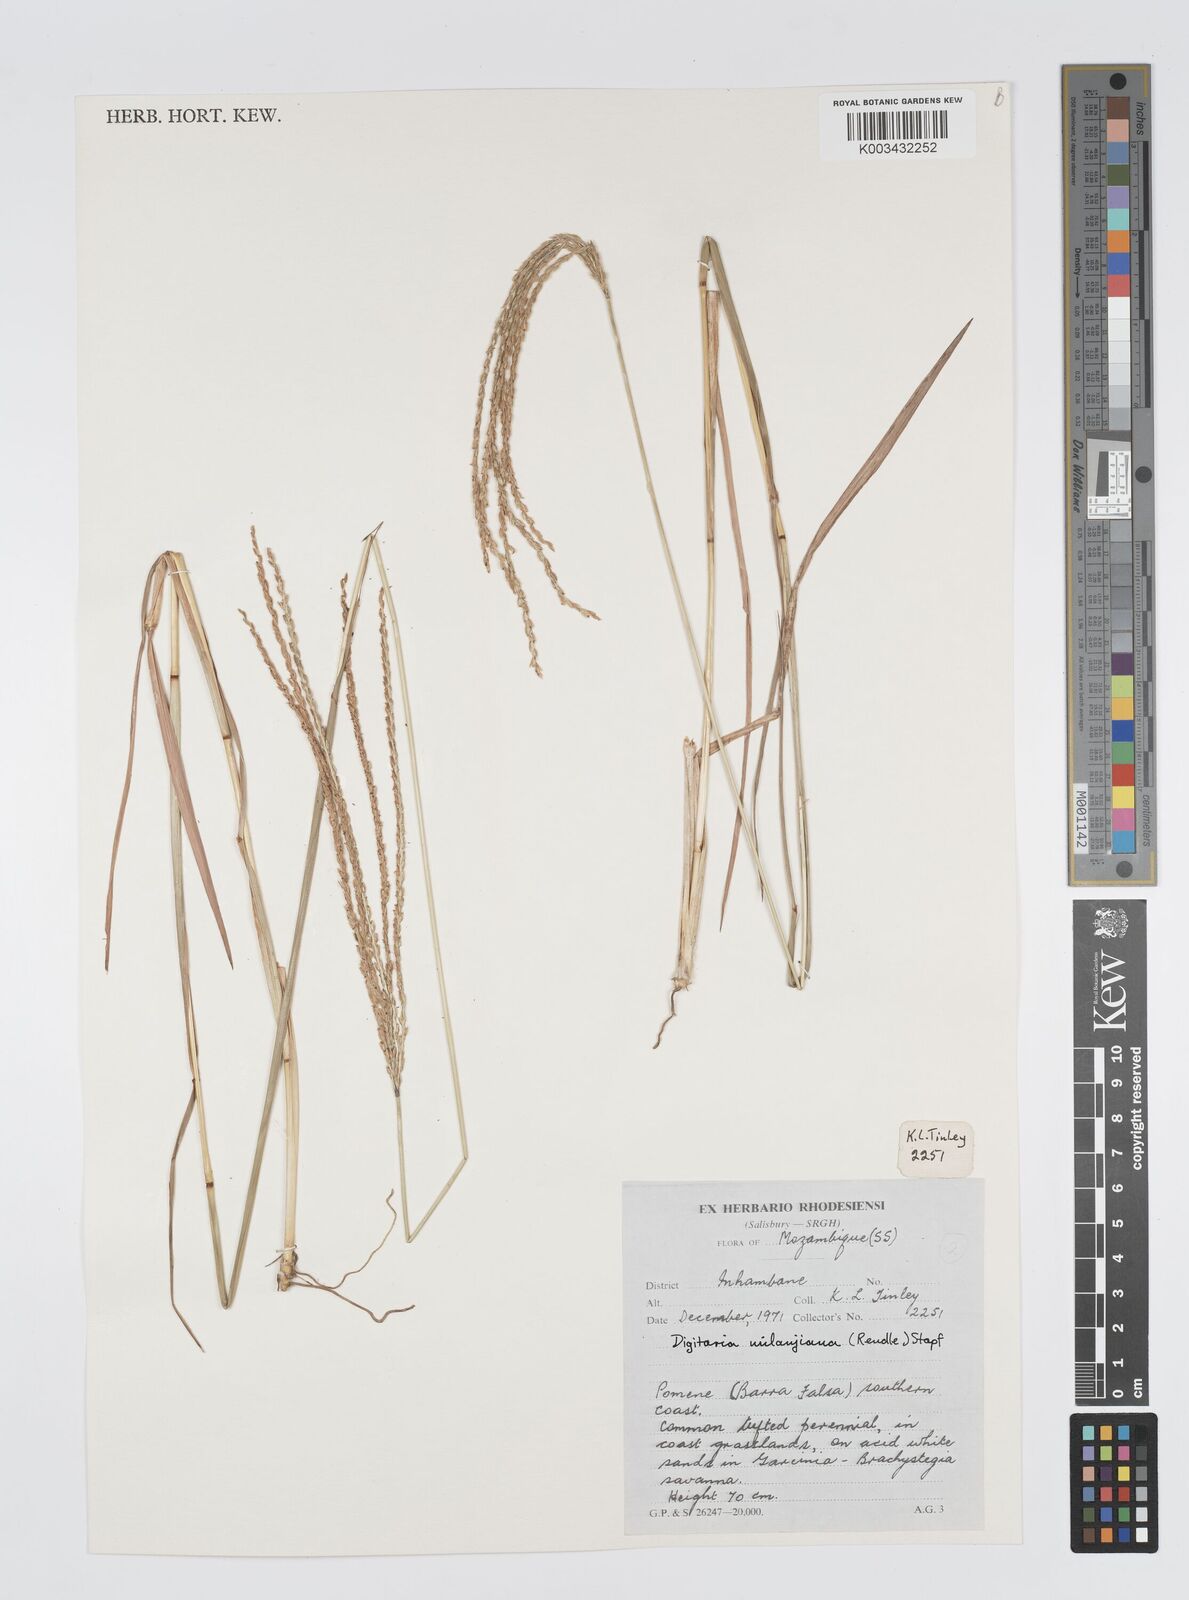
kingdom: Plantae
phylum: Tracheophyta
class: Liliopsida
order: Poales
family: Poaceae
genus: Digitaria
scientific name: Digitaria milanjiana
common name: Madagascar crabgrass
